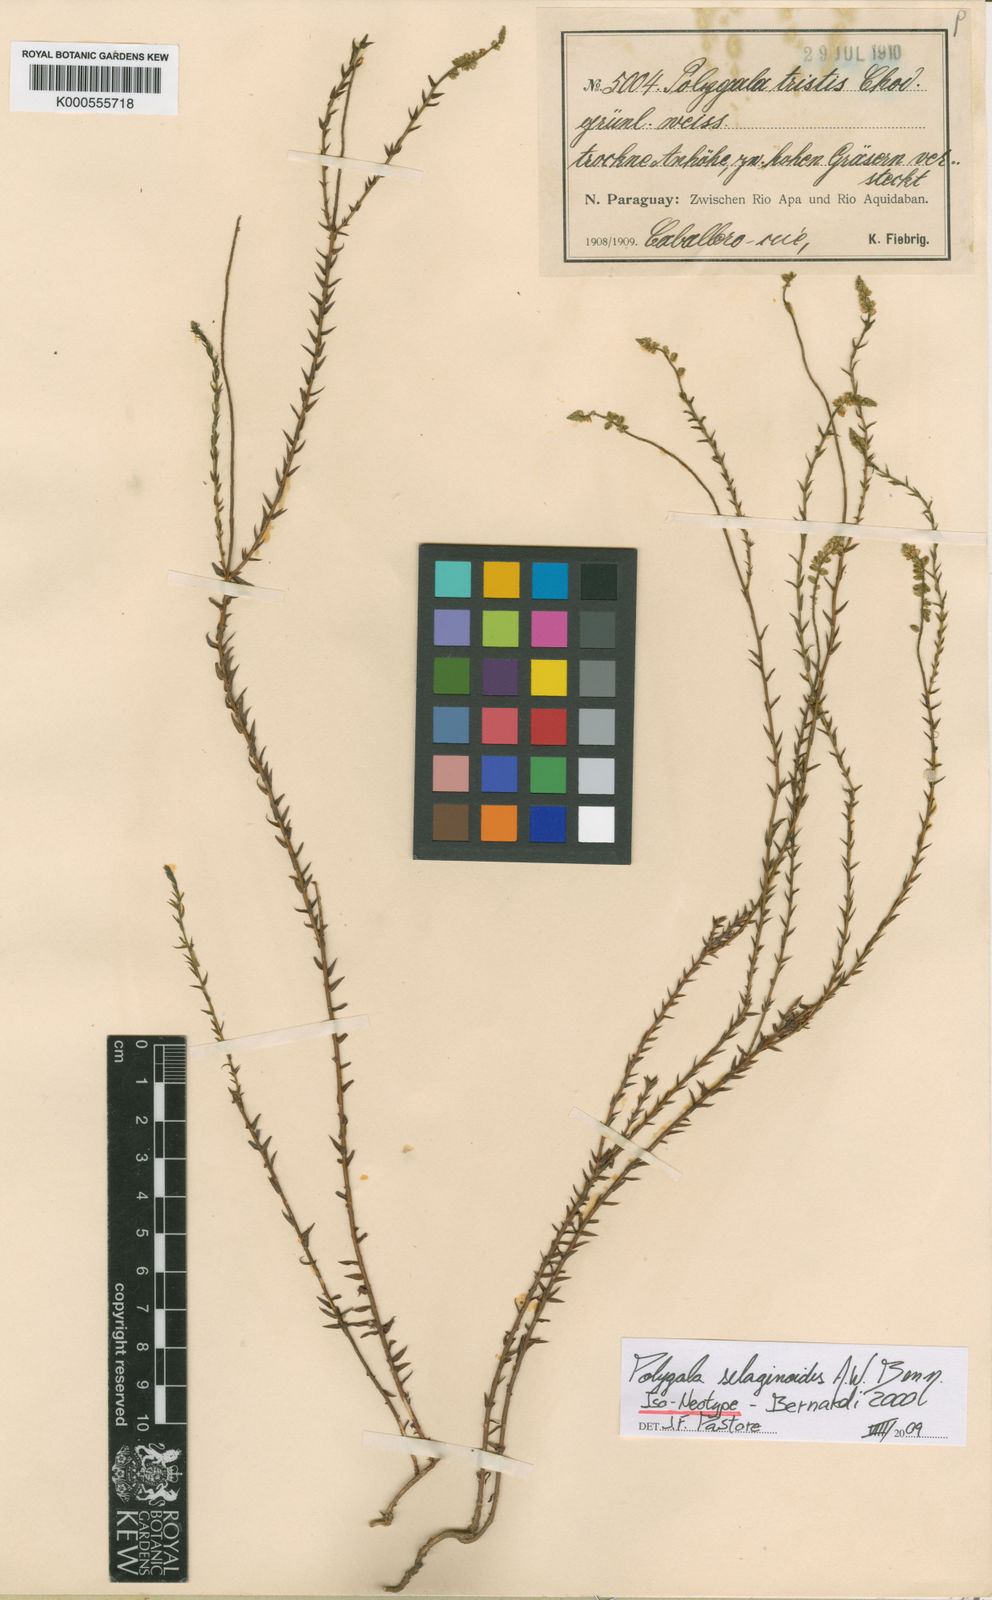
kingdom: Plantae
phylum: Tracheophyta
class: Magnoliopsida
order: Fabales
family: Polygalaceae
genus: Polygala
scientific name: Polygala selaginoides
